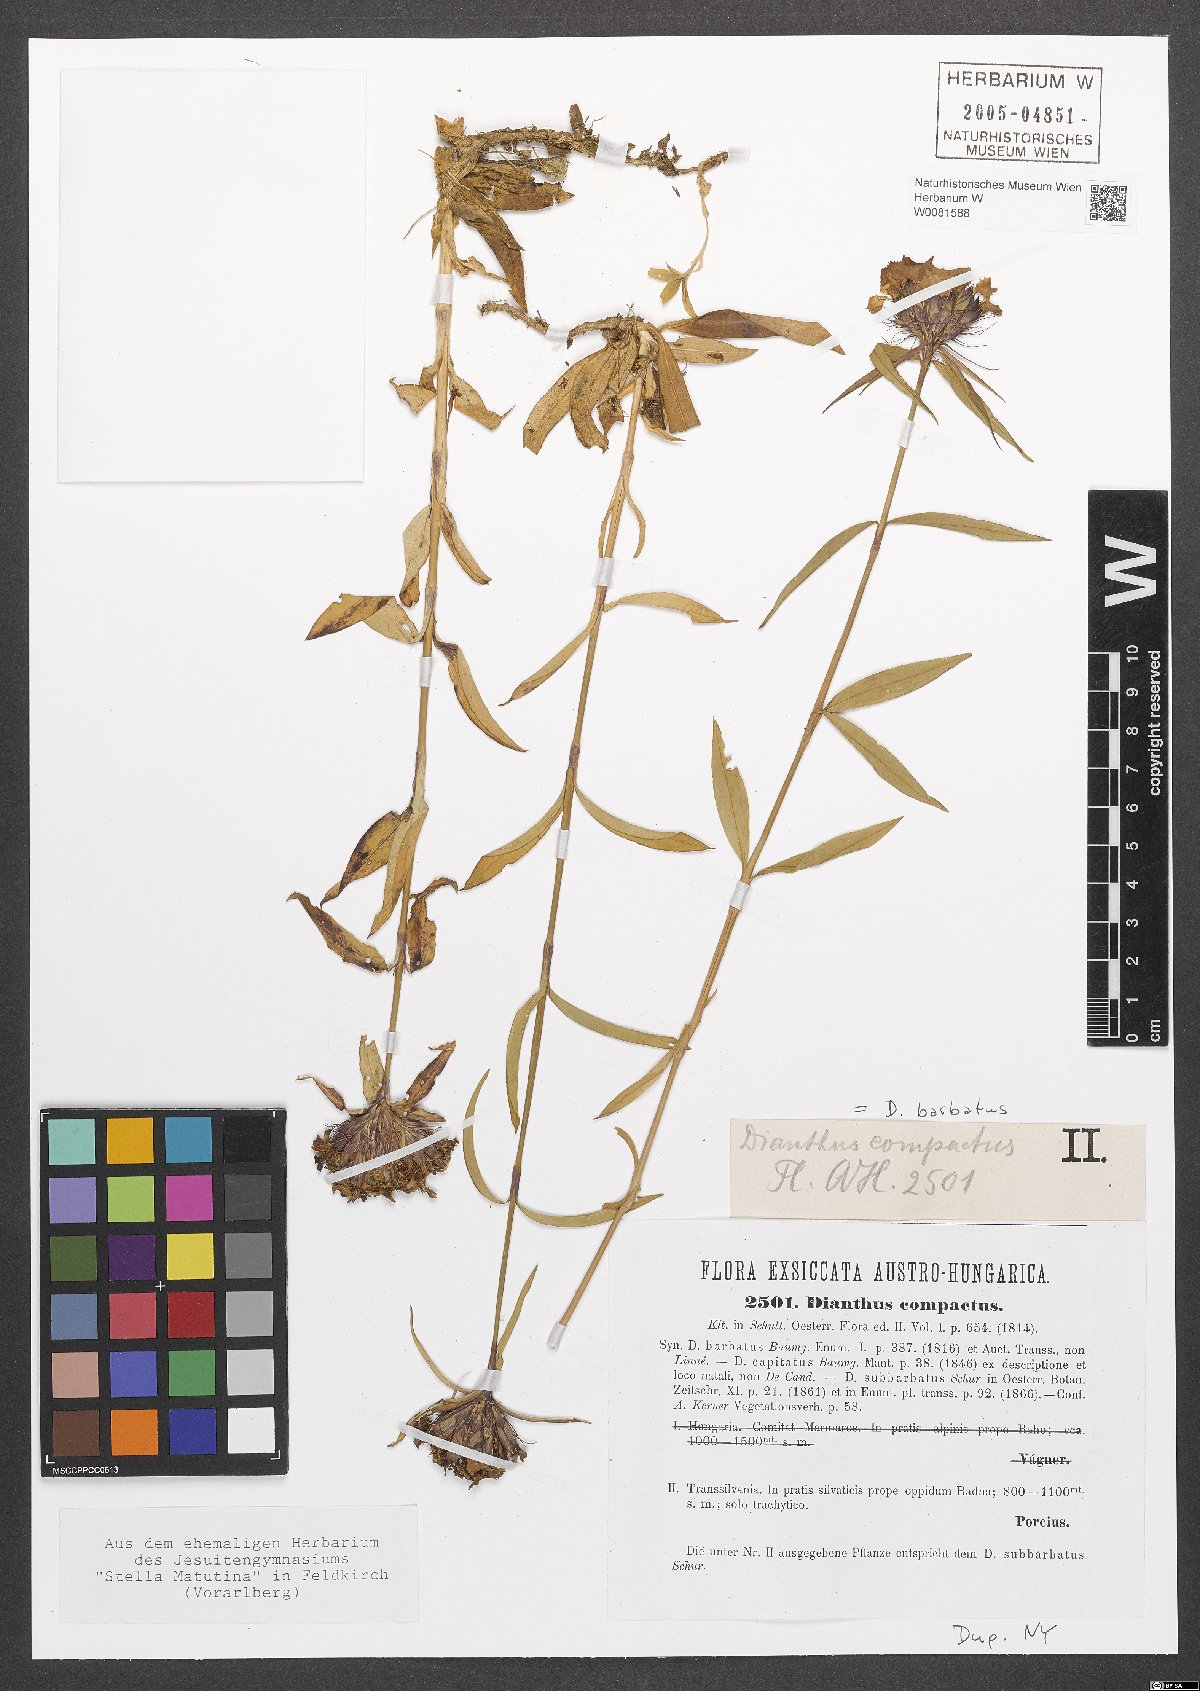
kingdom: Plantae
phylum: Tracheophyta
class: Magnoliopsida
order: Caryophyllales
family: Caryophyllaceae
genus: Dianthus
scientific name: Dianthus barbatus
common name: Sweet-william
